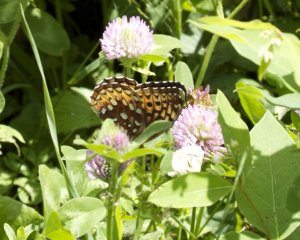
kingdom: Animalia
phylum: Arthropoda
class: Insecta
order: Lepidoptera
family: Nymphalidae
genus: Speyeria
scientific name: Speyeria atlantis
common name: Atlantis Fritillary
